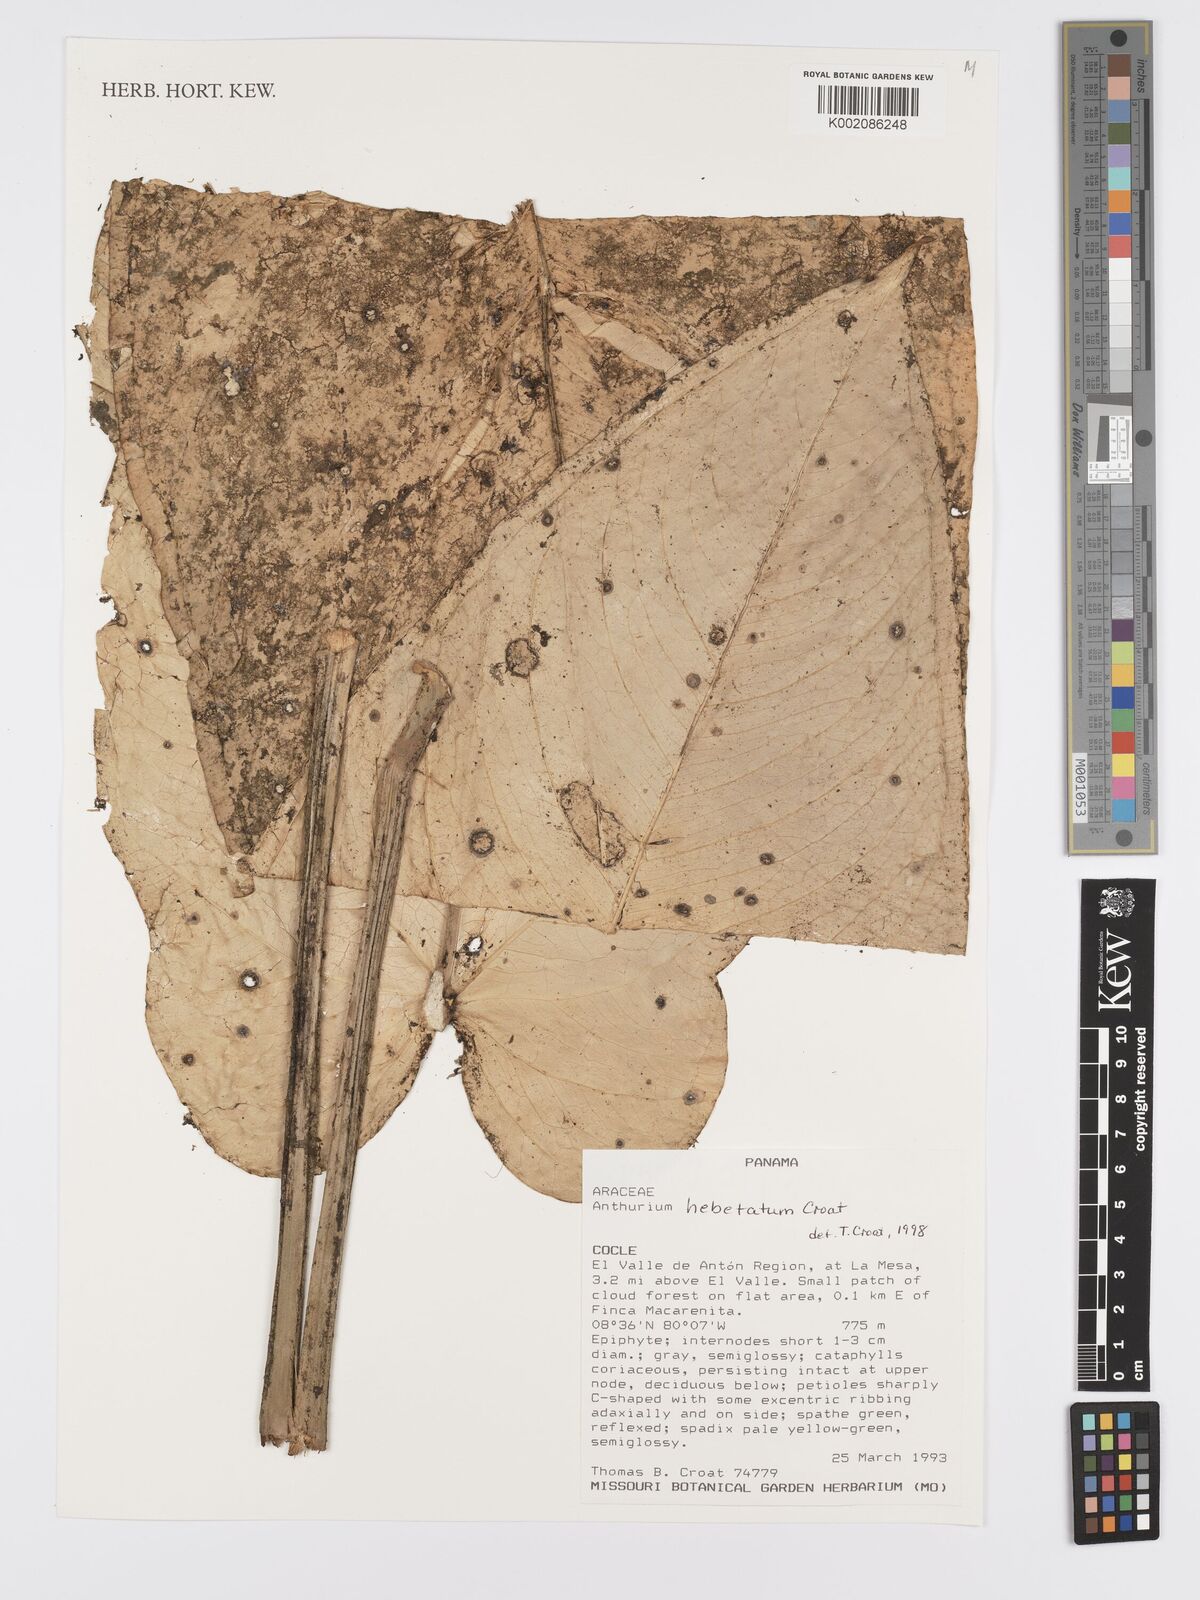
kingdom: Plantae
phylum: Tracheophyta
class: Liliopsida
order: Alismatales
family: Araceae
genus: Anthurium
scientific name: Anthurium hebetatum
